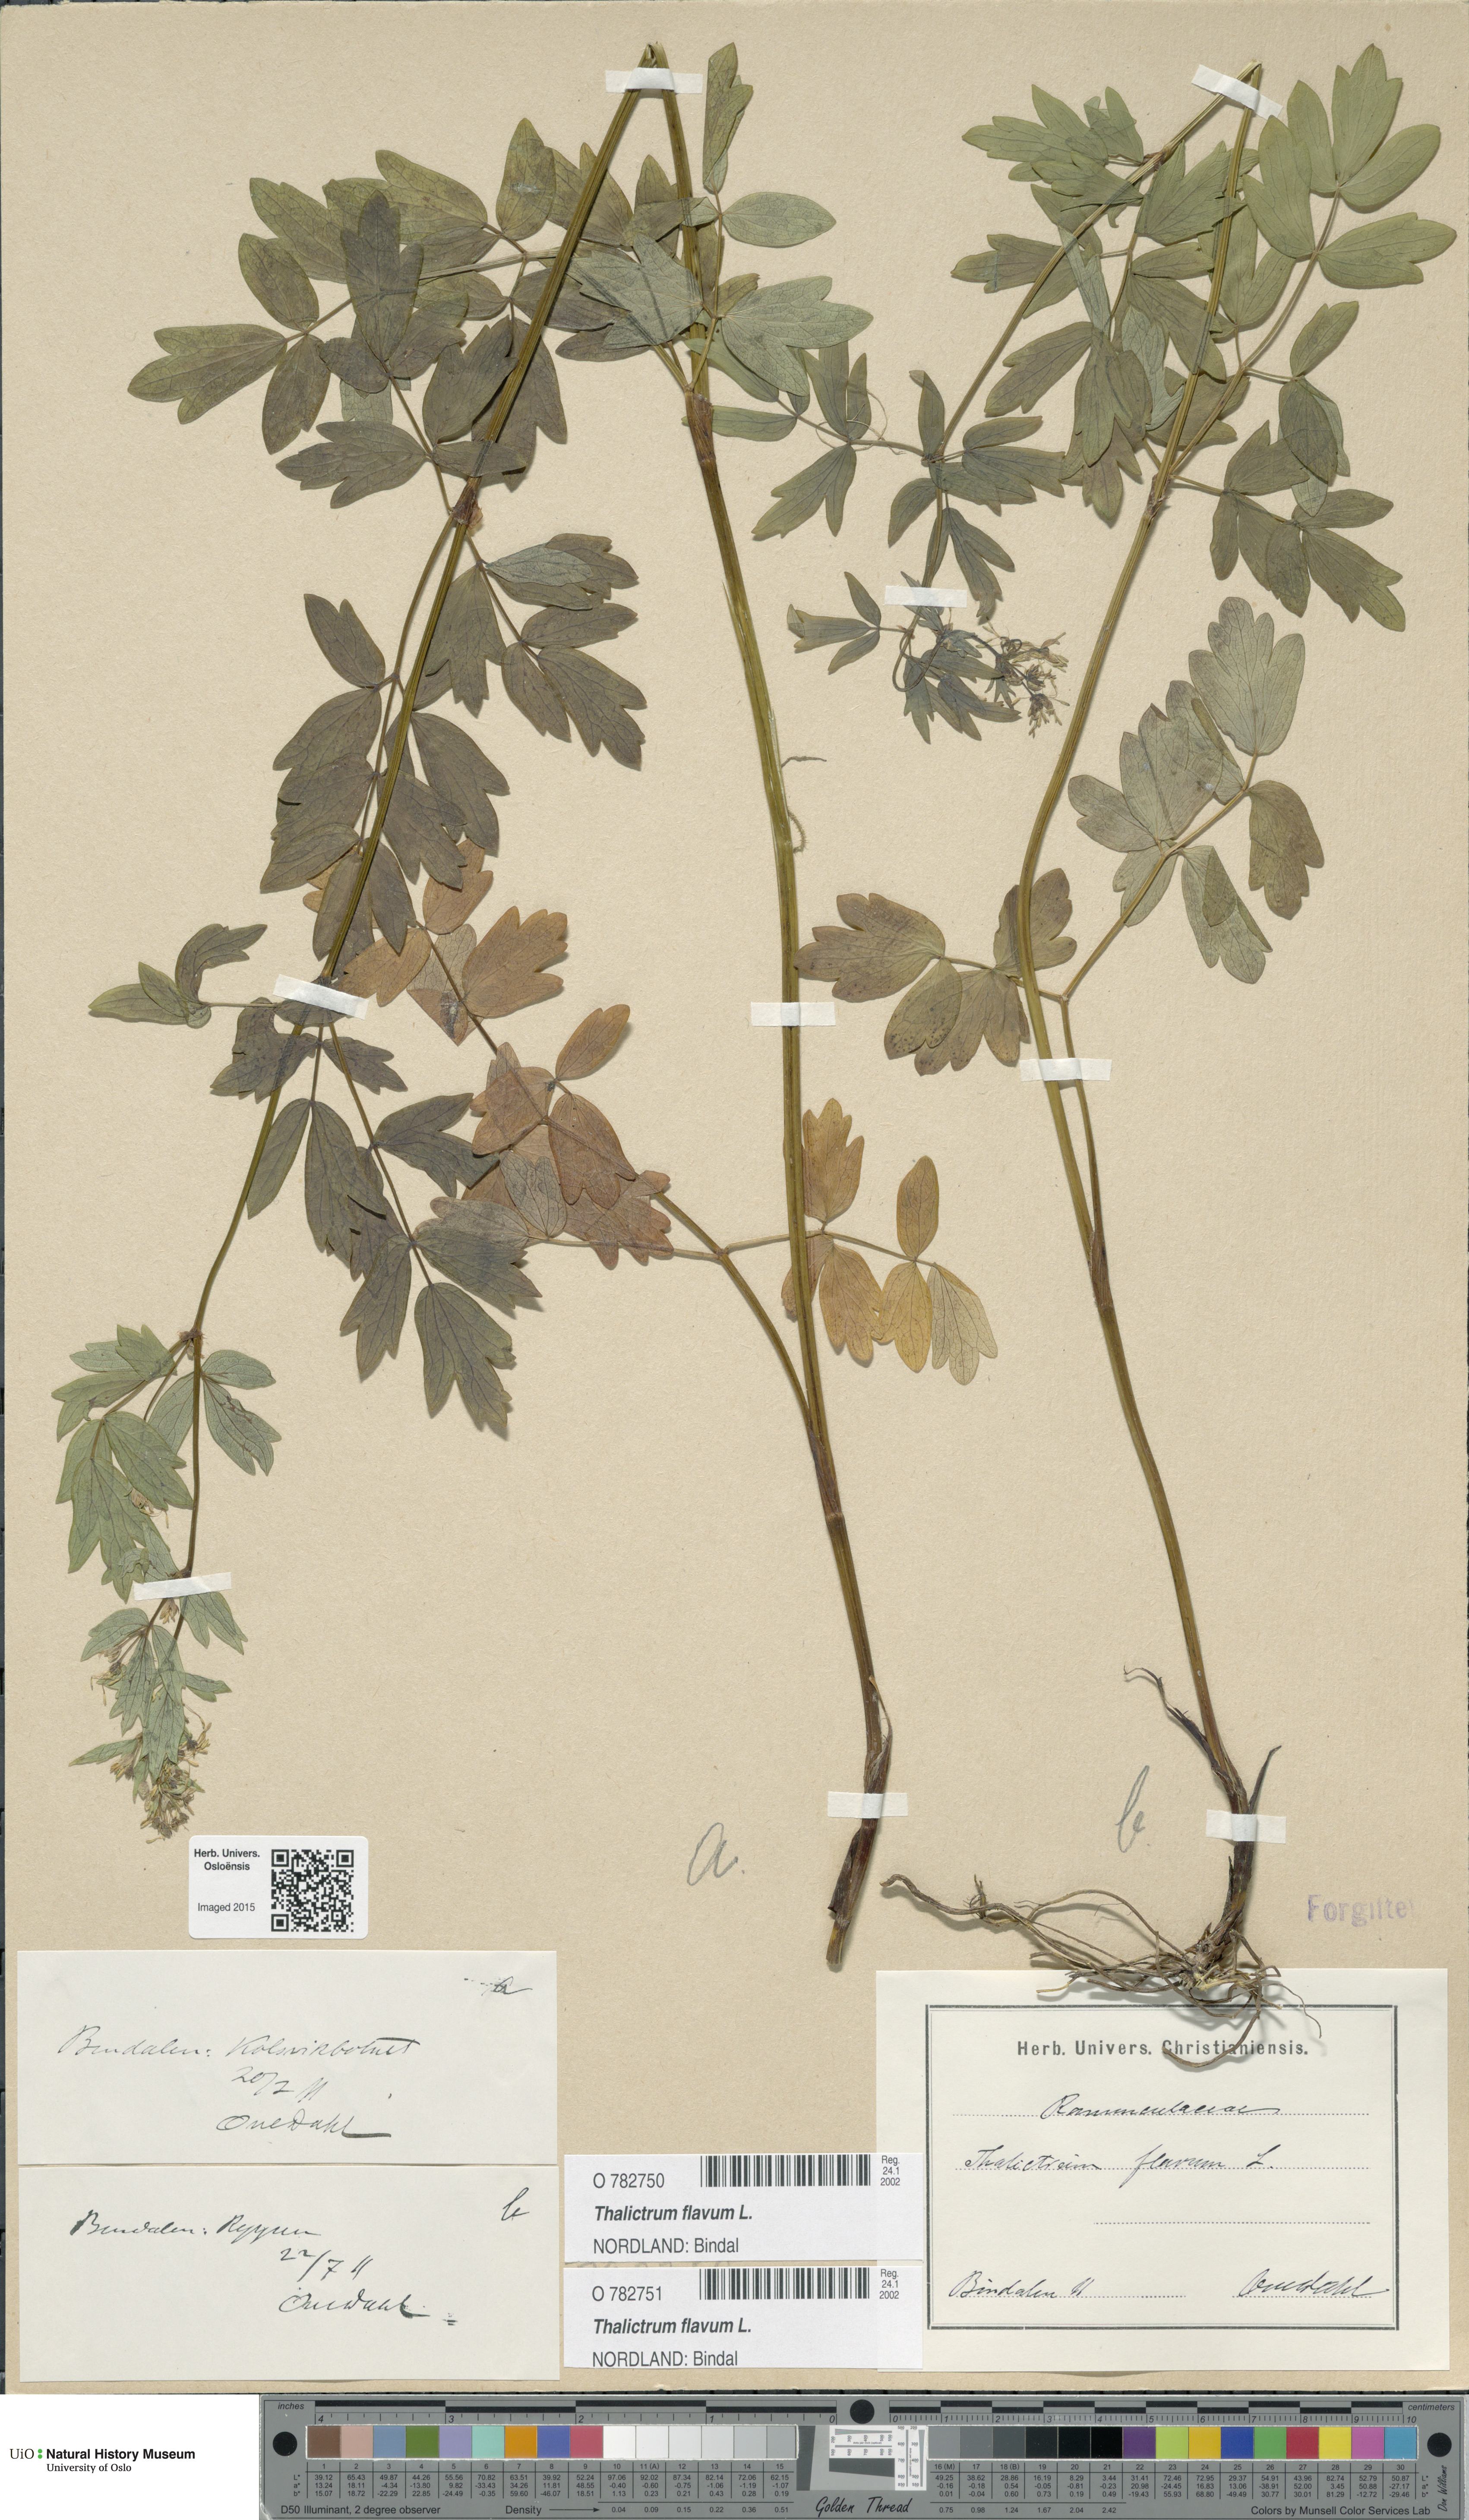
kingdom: Plantae
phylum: Tracheophyta
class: Magnoliopsida
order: Ranunculales
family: Ranunculaceae
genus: Thalictrum
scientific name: Thalictrum flavum
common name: Common meadow-rue
